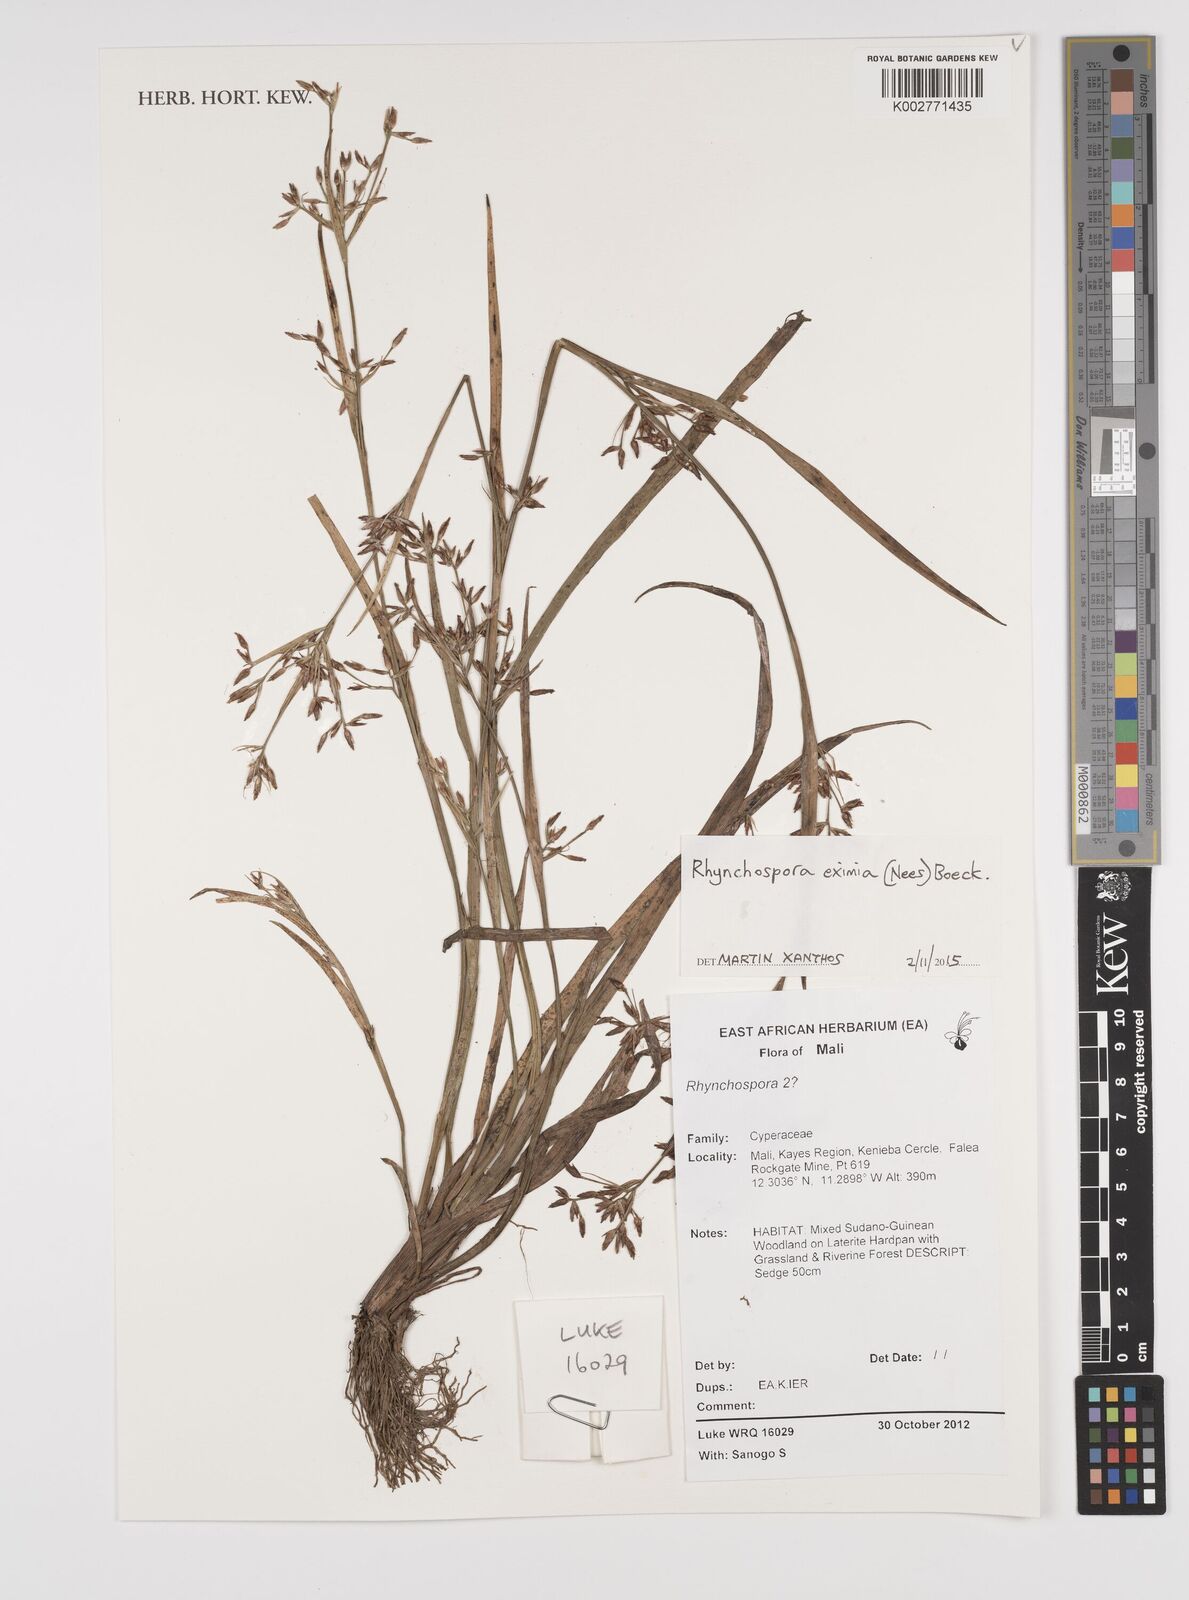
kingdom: Plantae
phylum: Tracheophyta
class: Liliopsida
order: Poales
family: Cyperaceae
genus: Rhynchospora
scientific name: Rhynchospora eximia
